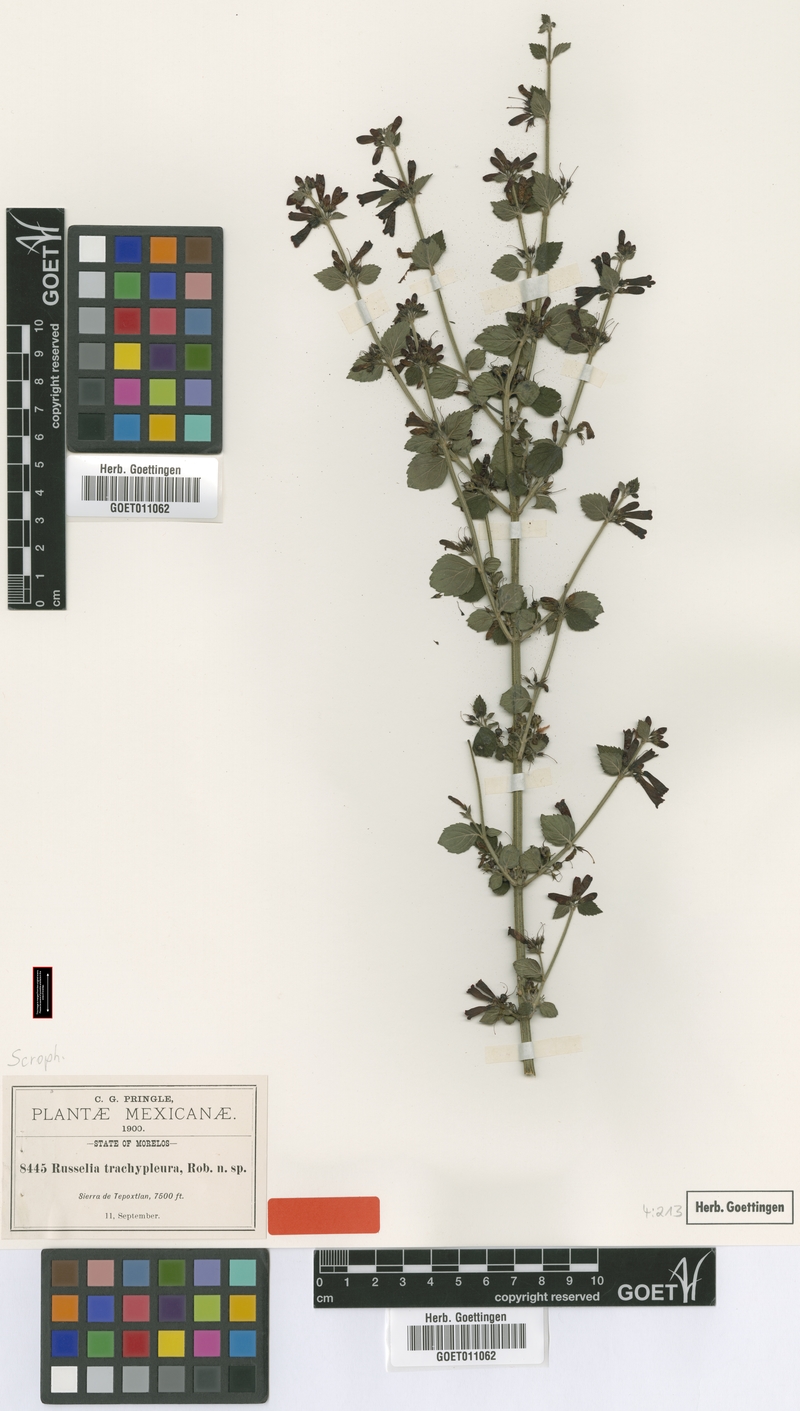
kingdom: Plantae
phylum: Tracheophyta
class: Magnoliopsida
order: Lamiales
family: Plantaginaceae
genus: Russelia
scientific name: Russelia retrorsa
